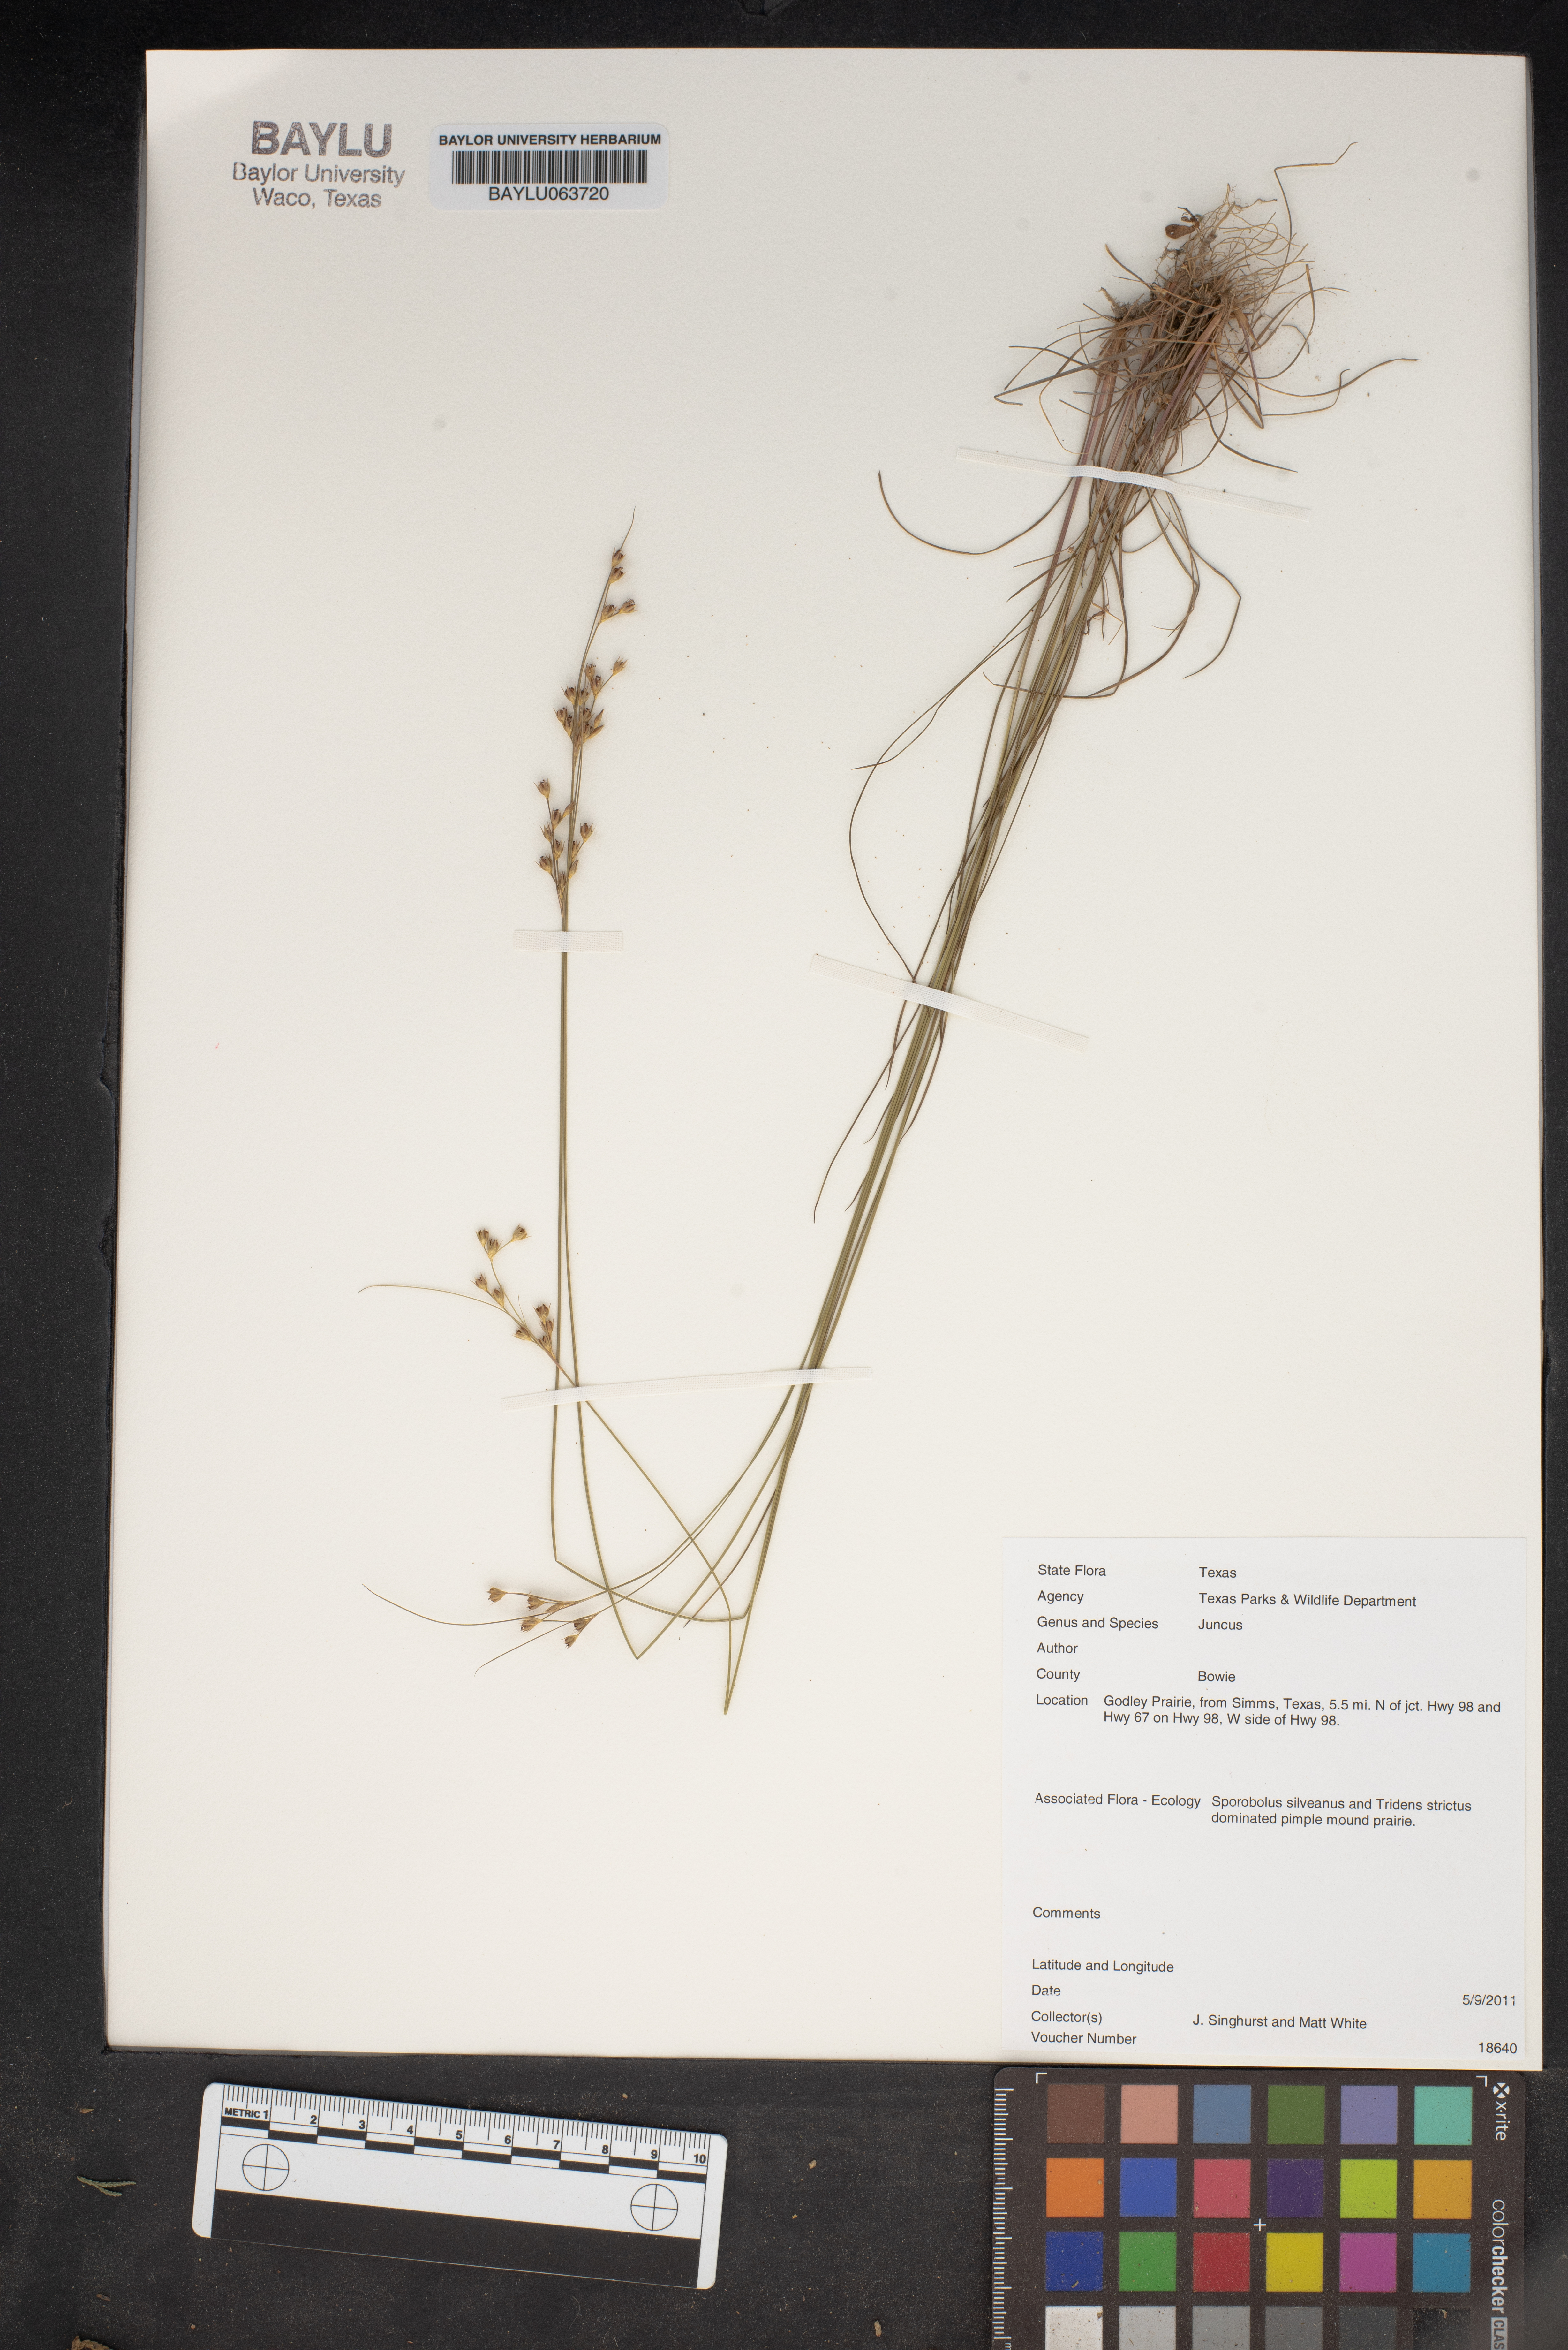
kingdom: Plantae
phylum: Tracheophyta
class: Liliopsida
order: Poales
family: Juncaceae
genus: Juncus
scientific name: Juncus
